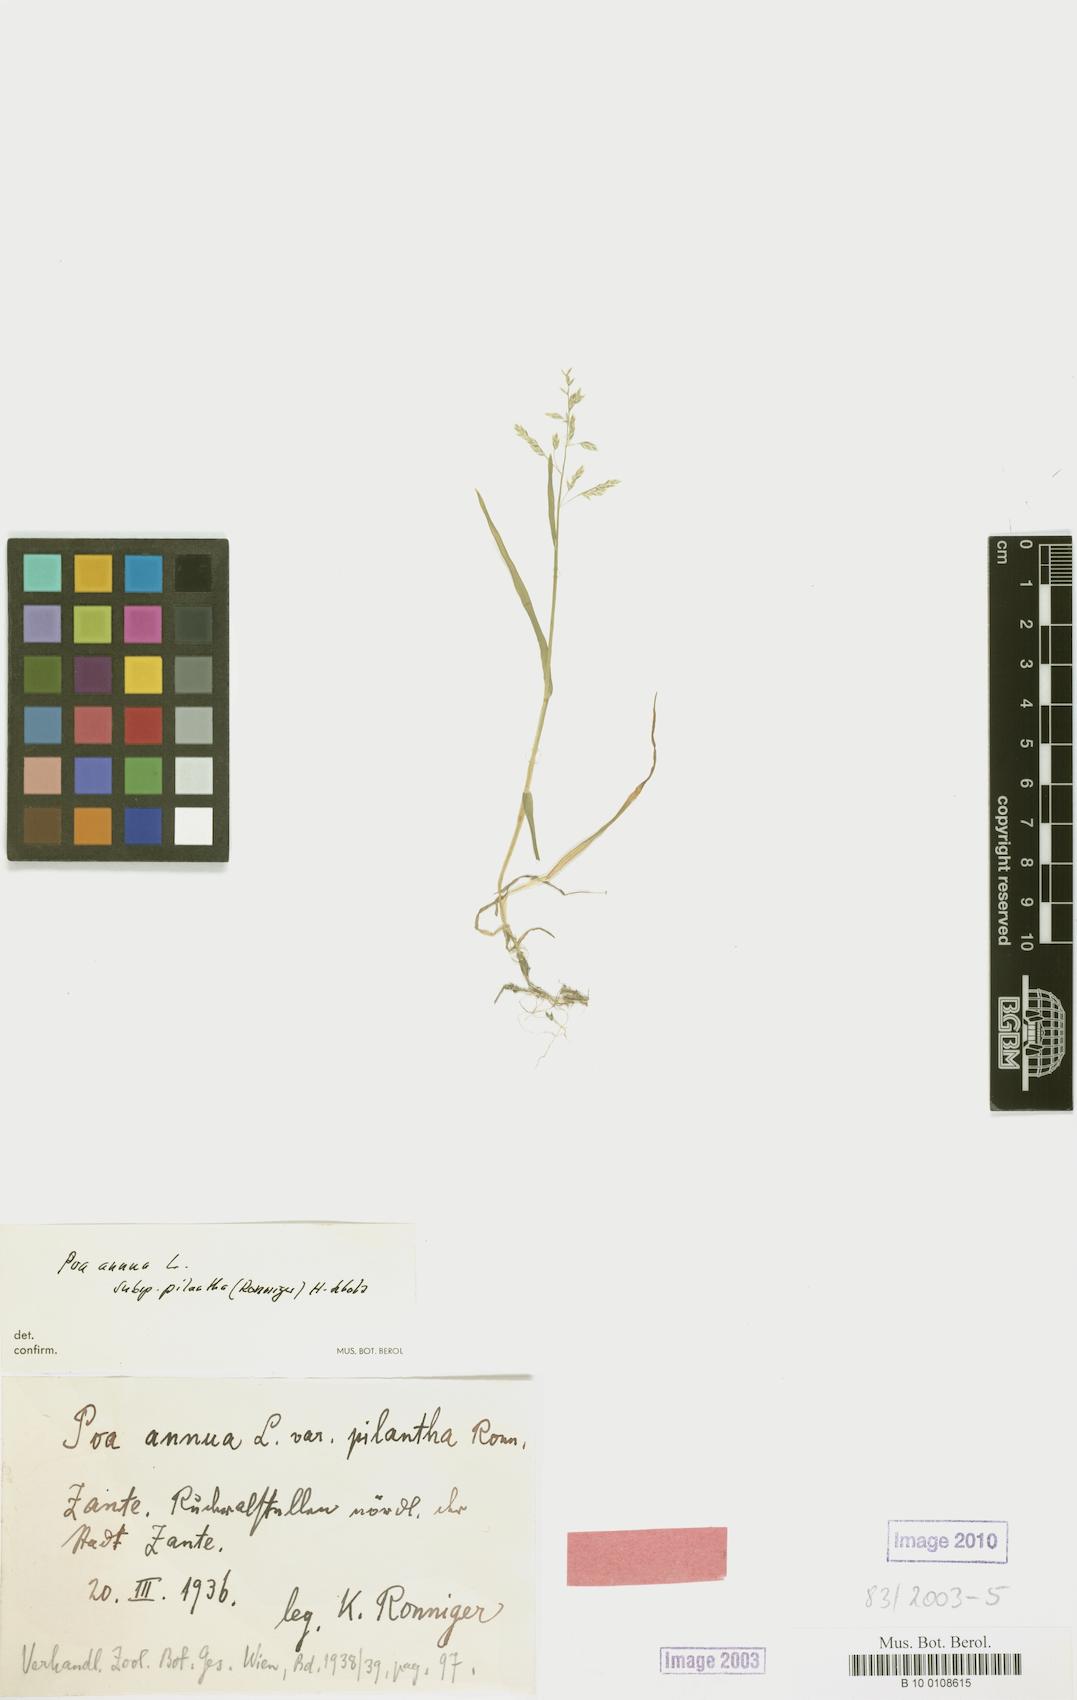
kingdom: Plantae
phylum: Tracheophyta
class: Liliopsida
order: Poales
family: Poaceae
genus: Poa
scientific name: Poa annua
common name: Annual bluegrass
